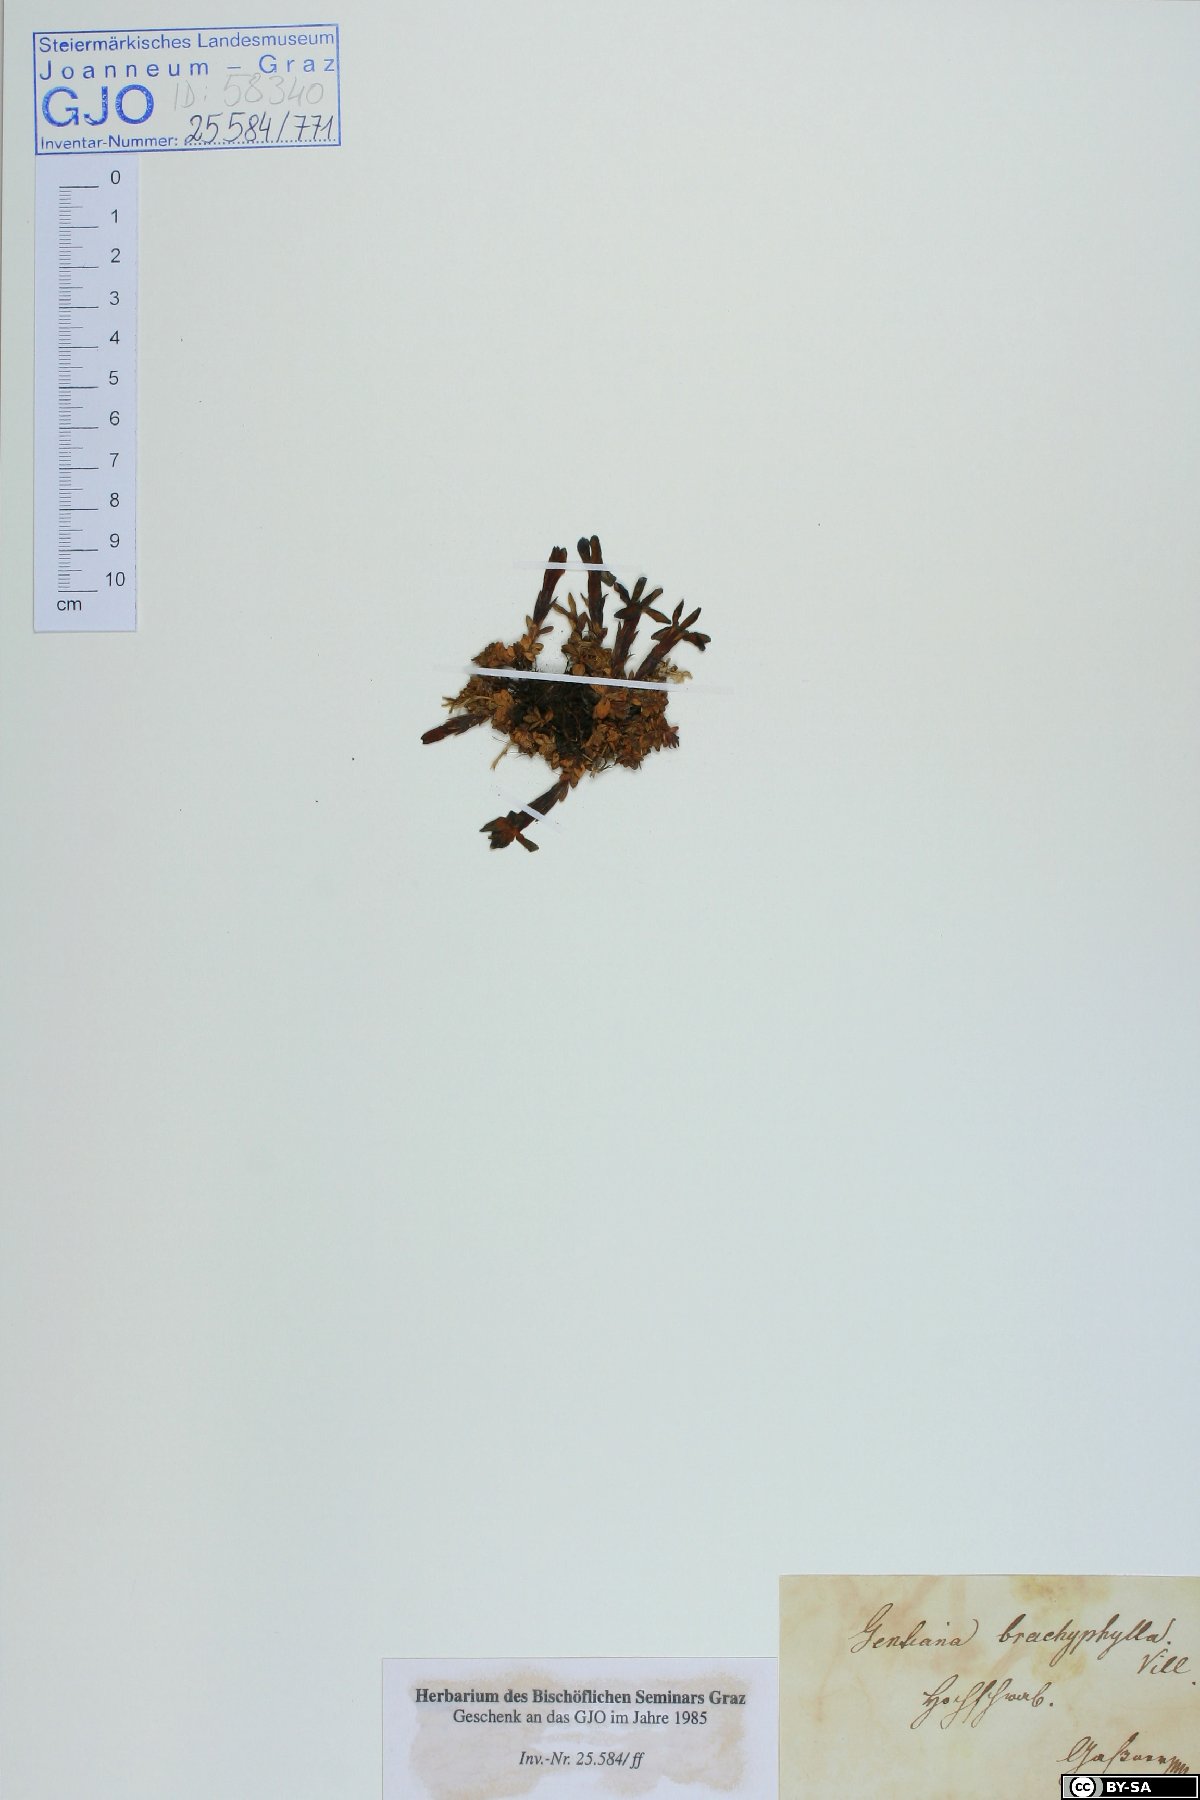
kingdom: Plantae
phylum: Tracheophyta
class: Magnoliopsida
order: Gentianales
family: Gentianaceae
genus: Gentiana
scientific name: Gentiana bavarica
